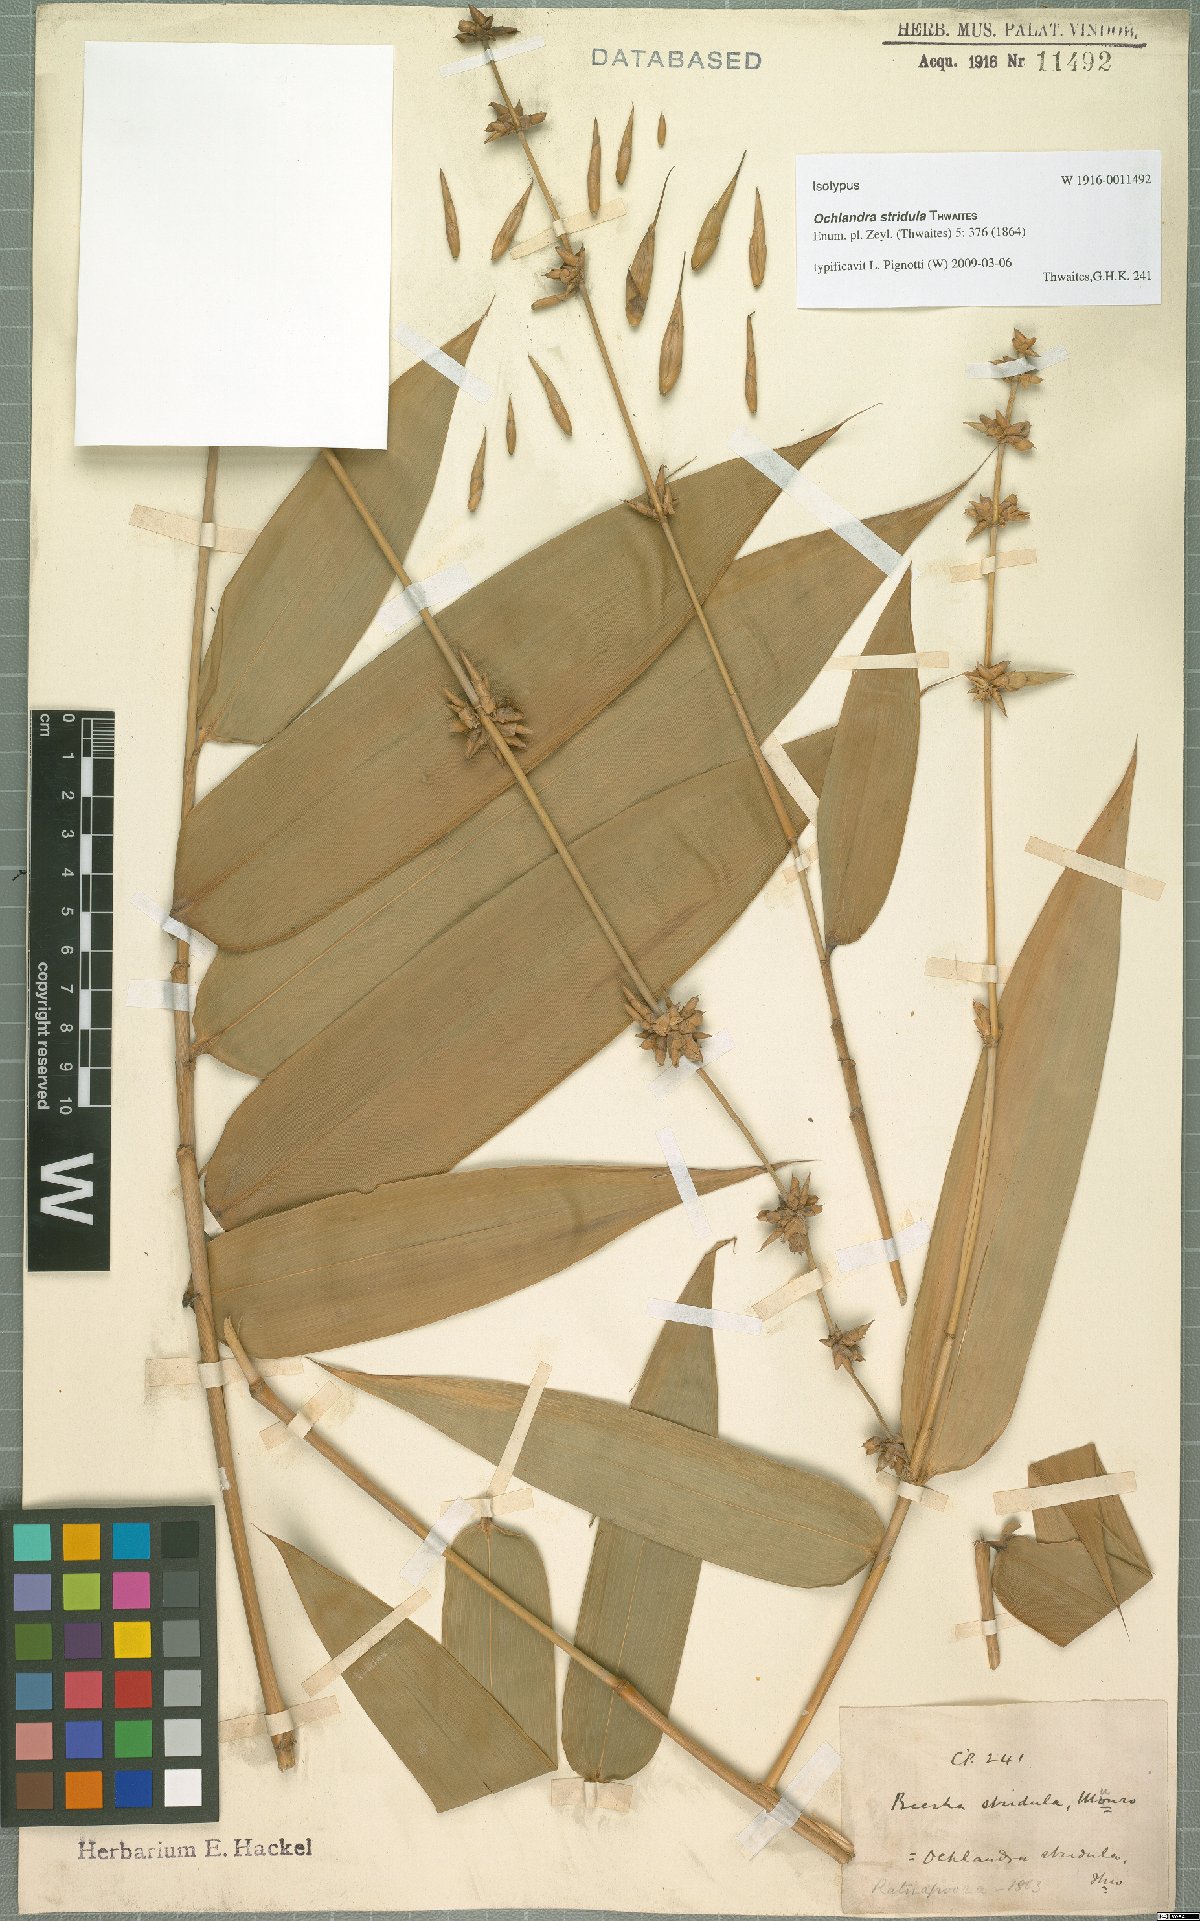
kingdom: Plantae
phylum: Tracheophyta
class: Liliopsida
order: Poales
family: Poaceae
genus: Ochlandra
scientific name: Ochlandra stridula
